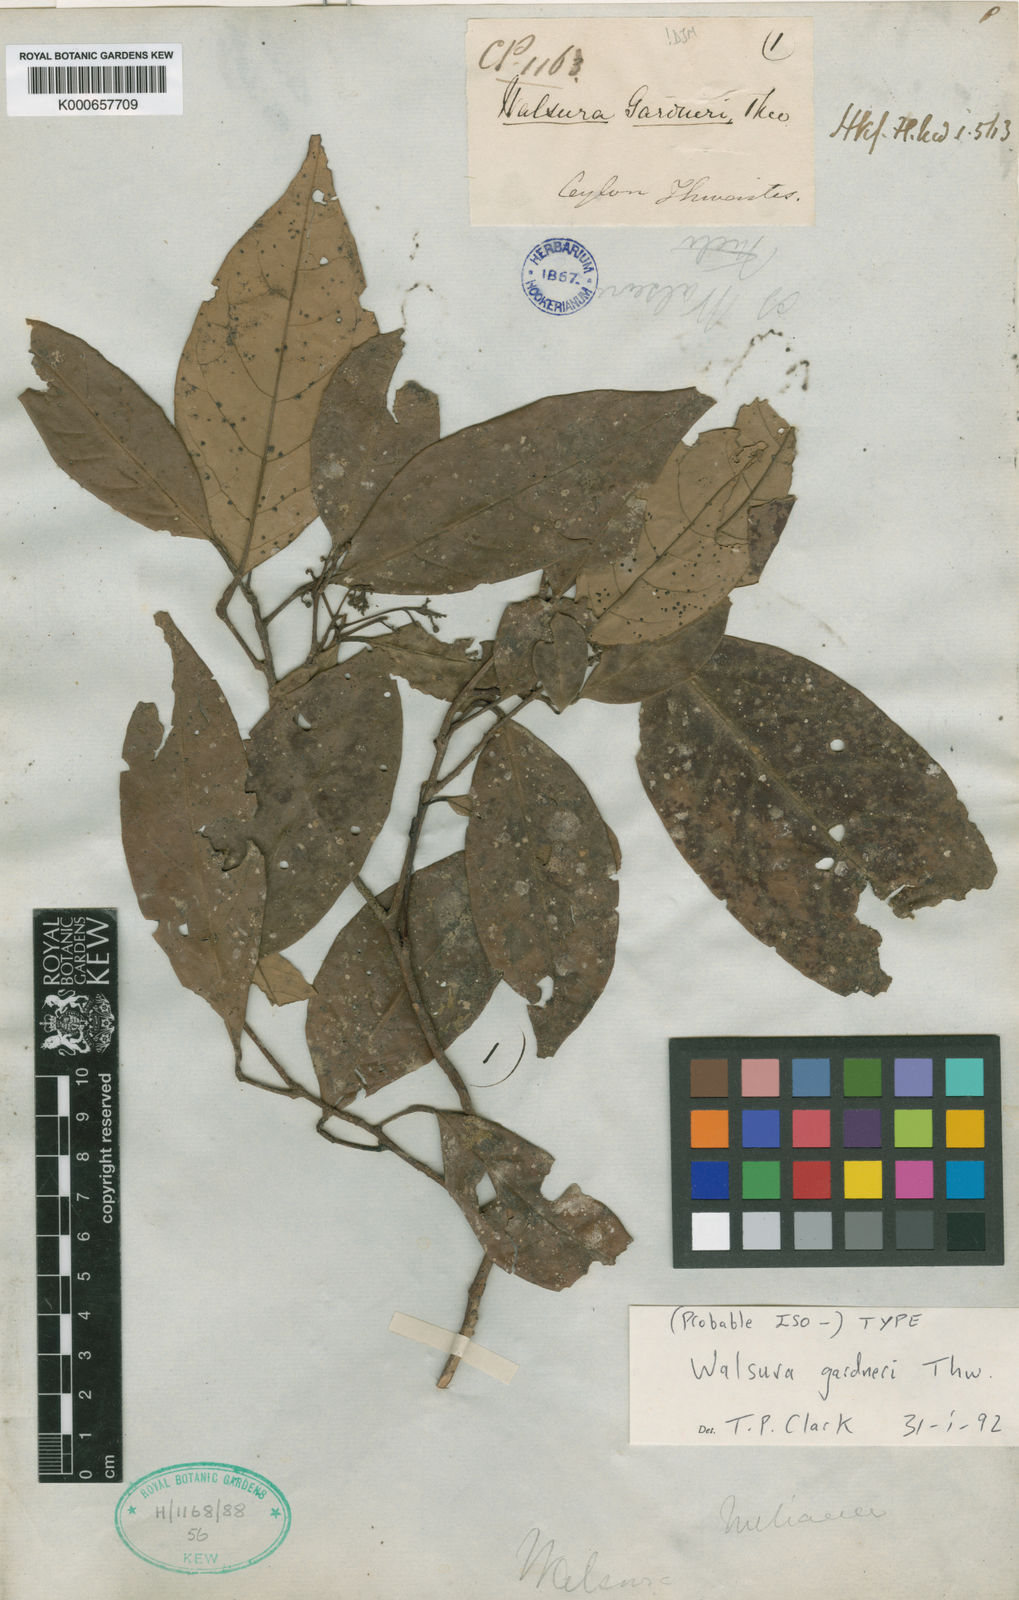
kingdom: Plantae
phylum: Tracheophyta
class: Magnoliopsida
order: Sapindales
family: Meliaceae
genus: Walsura
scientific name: Walsura gardneri
